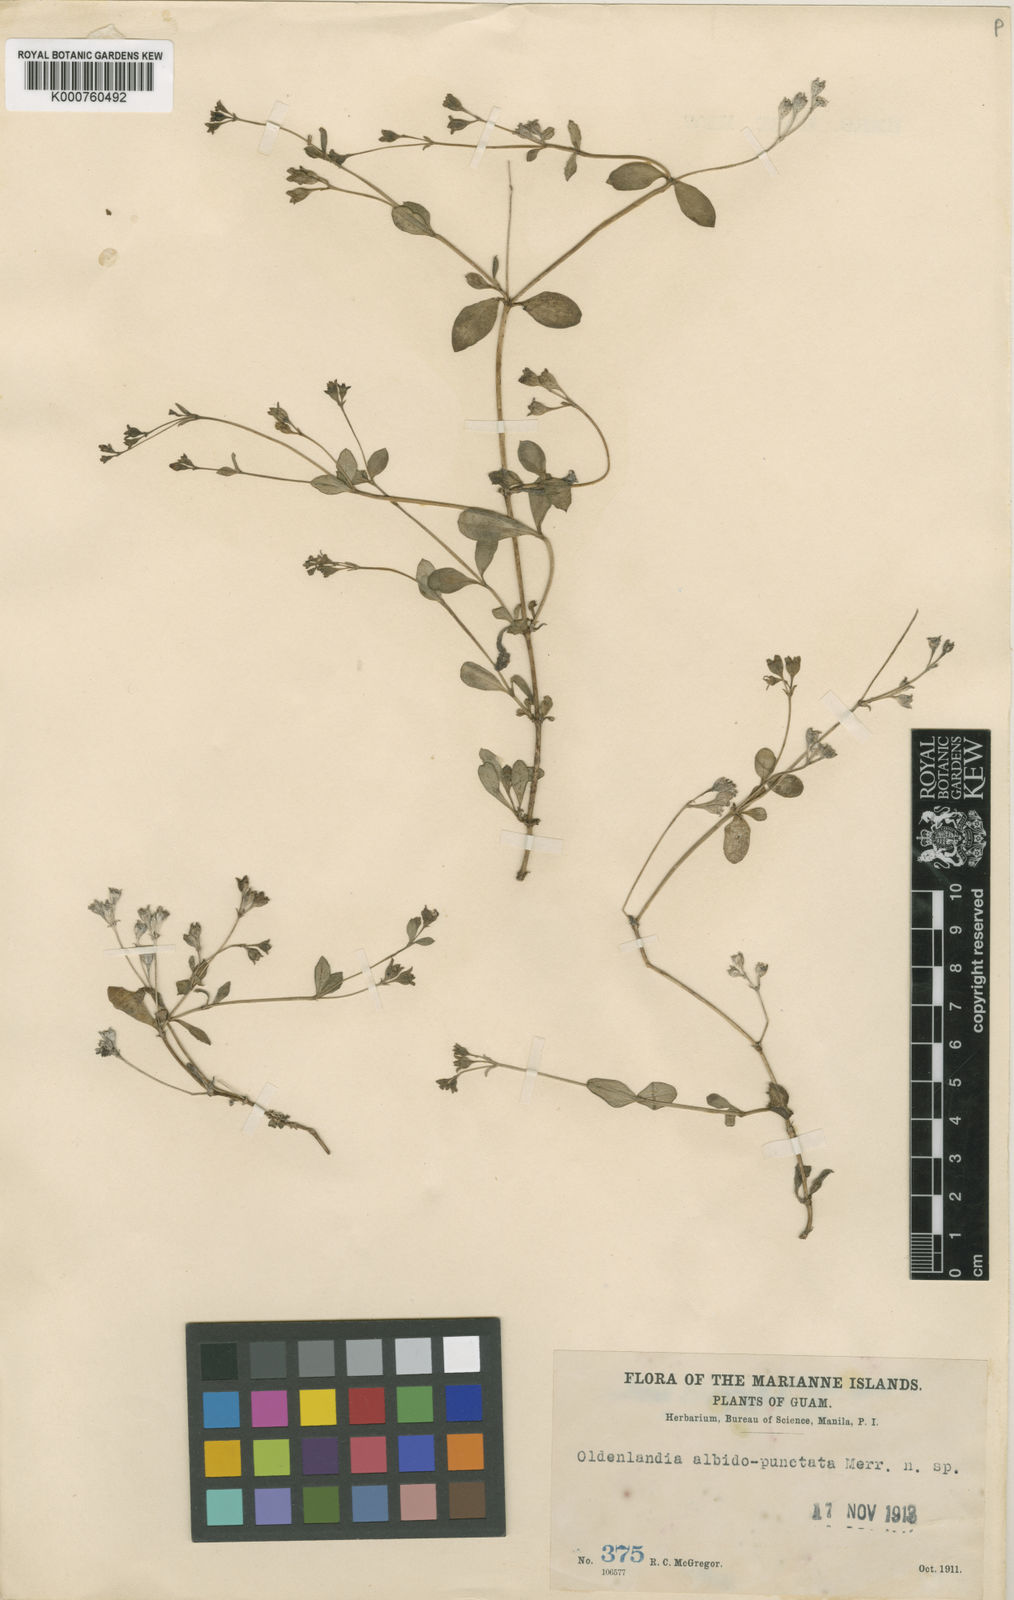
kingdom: Plantae
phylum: Tracheophyta
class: Magnoliopsida
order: Gentianales
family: Rubiaceae
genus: Leptopetalum
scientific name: Leptopetalum strigulosum
